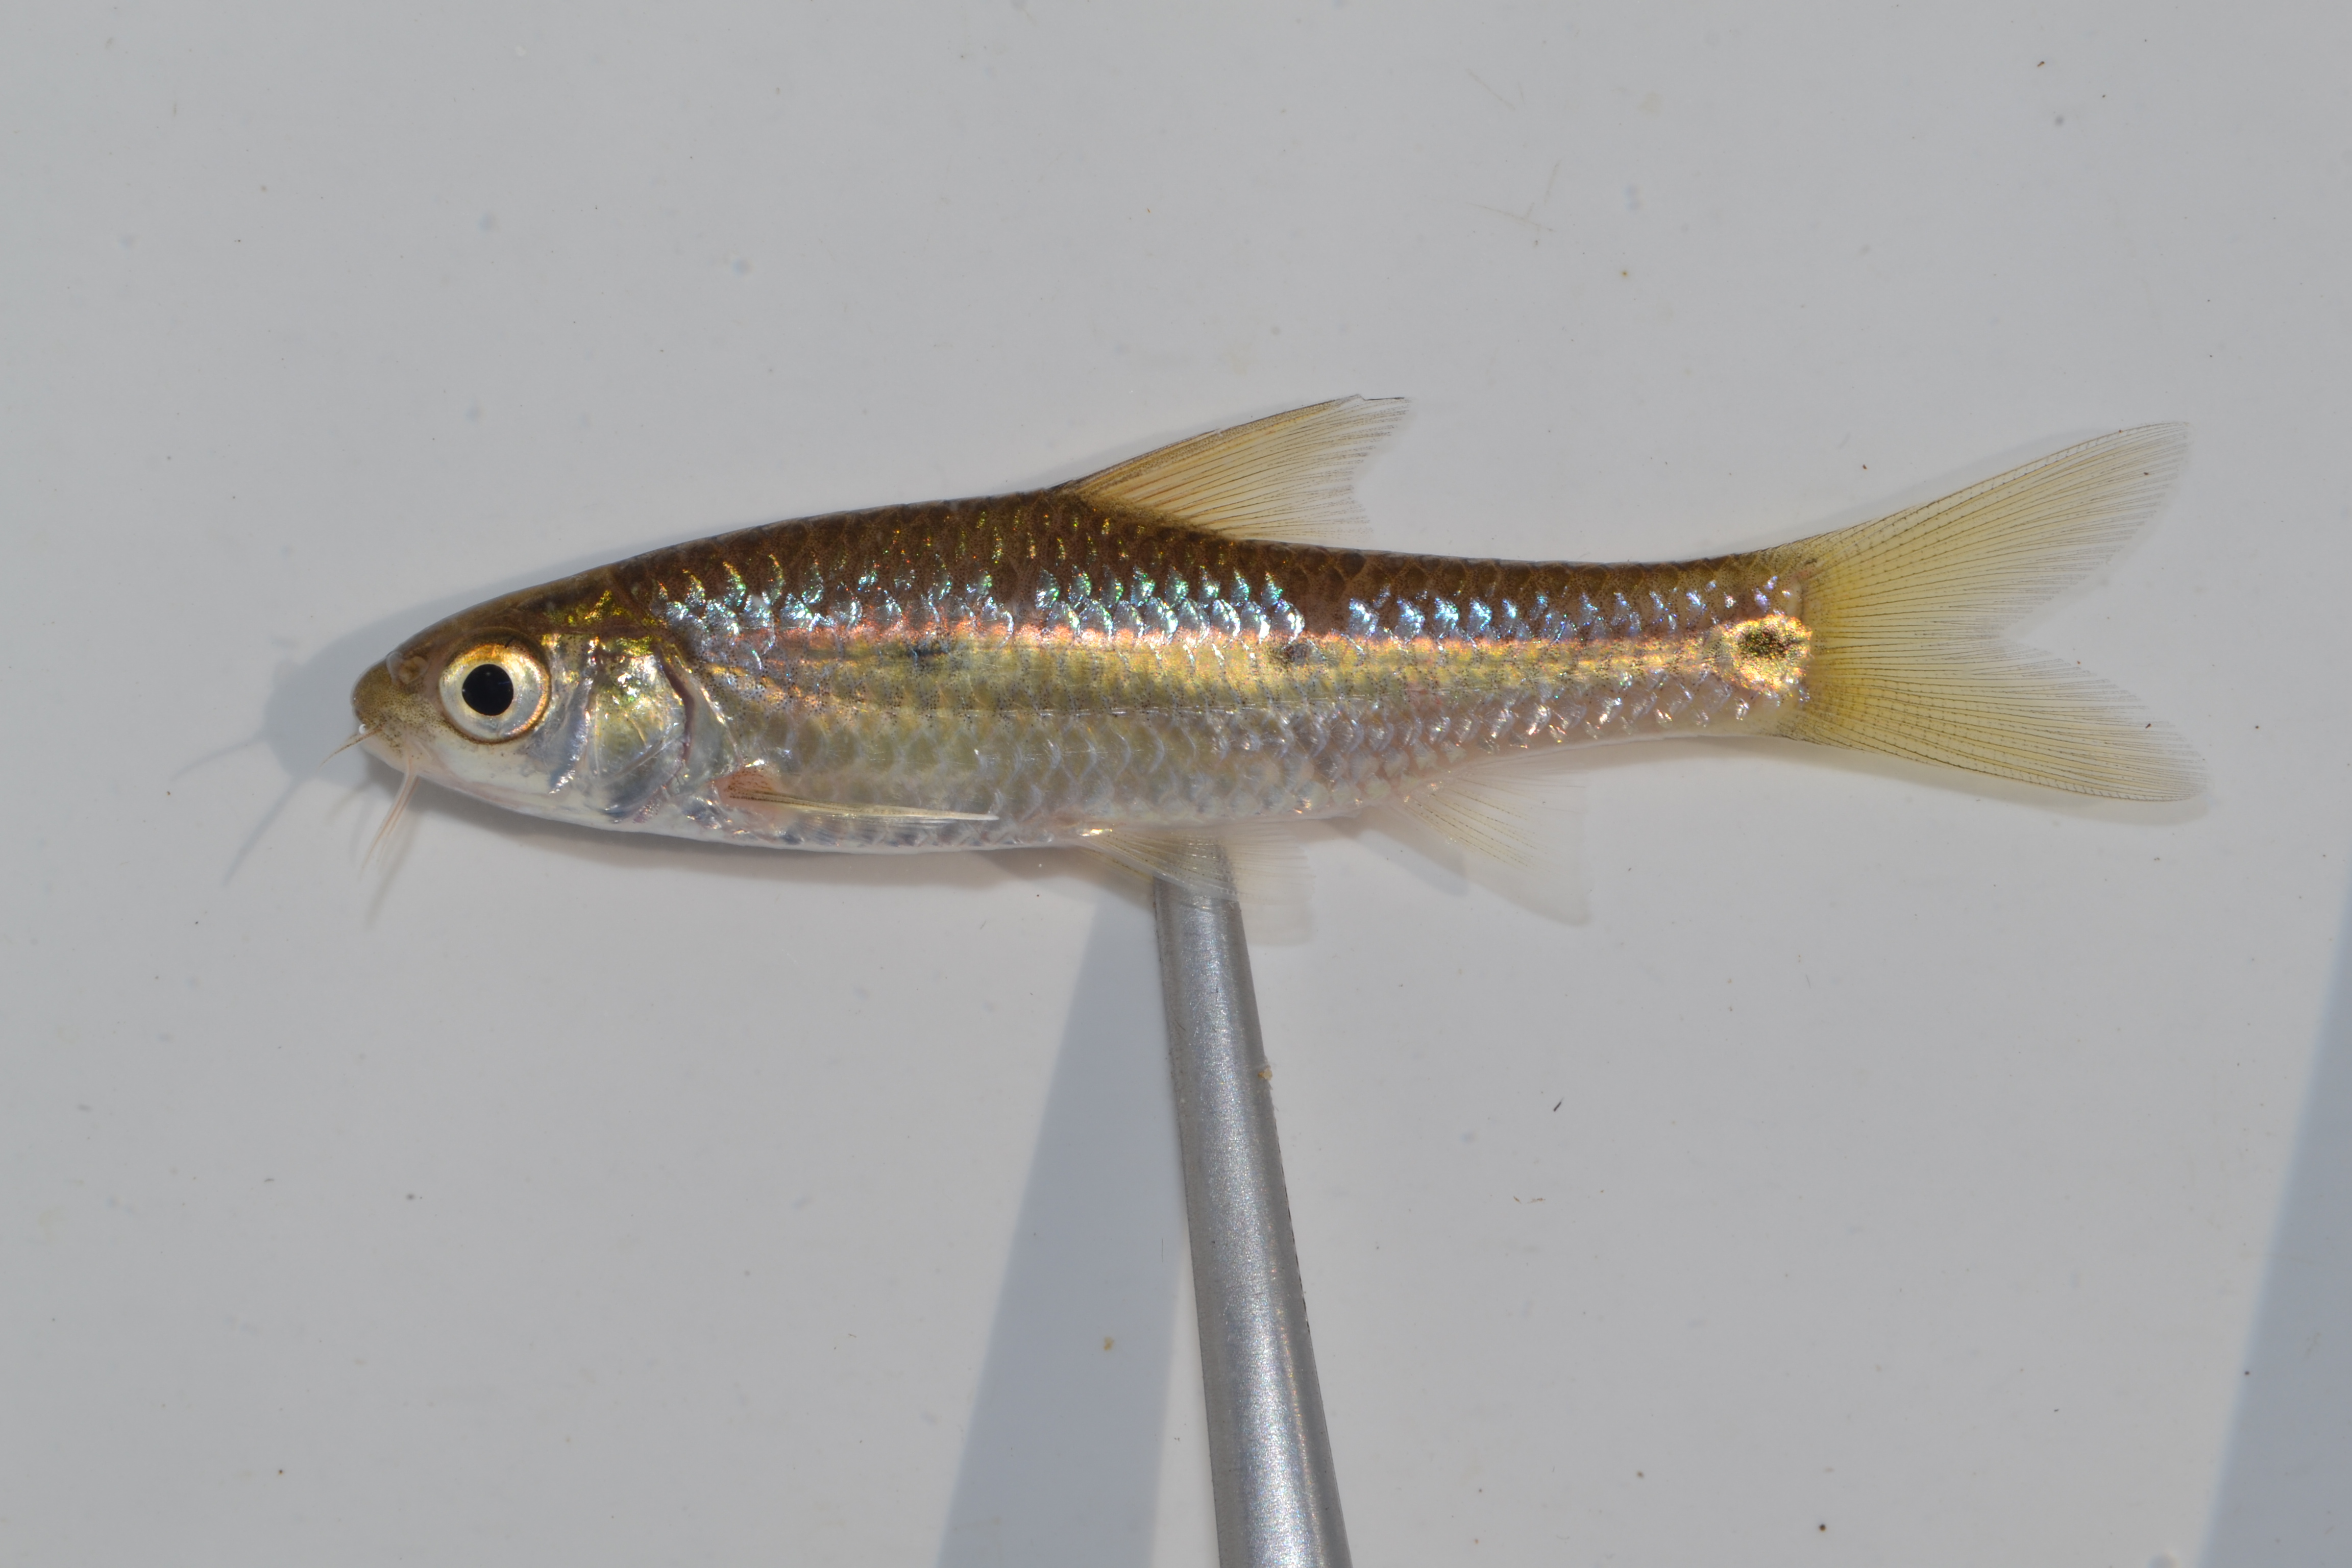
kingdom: Animalia
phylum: Chordata
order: Cypriniformes
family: Cyprinidae
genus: Enteromius
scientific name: Enteromius trimaculatus
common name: Threespot barb
